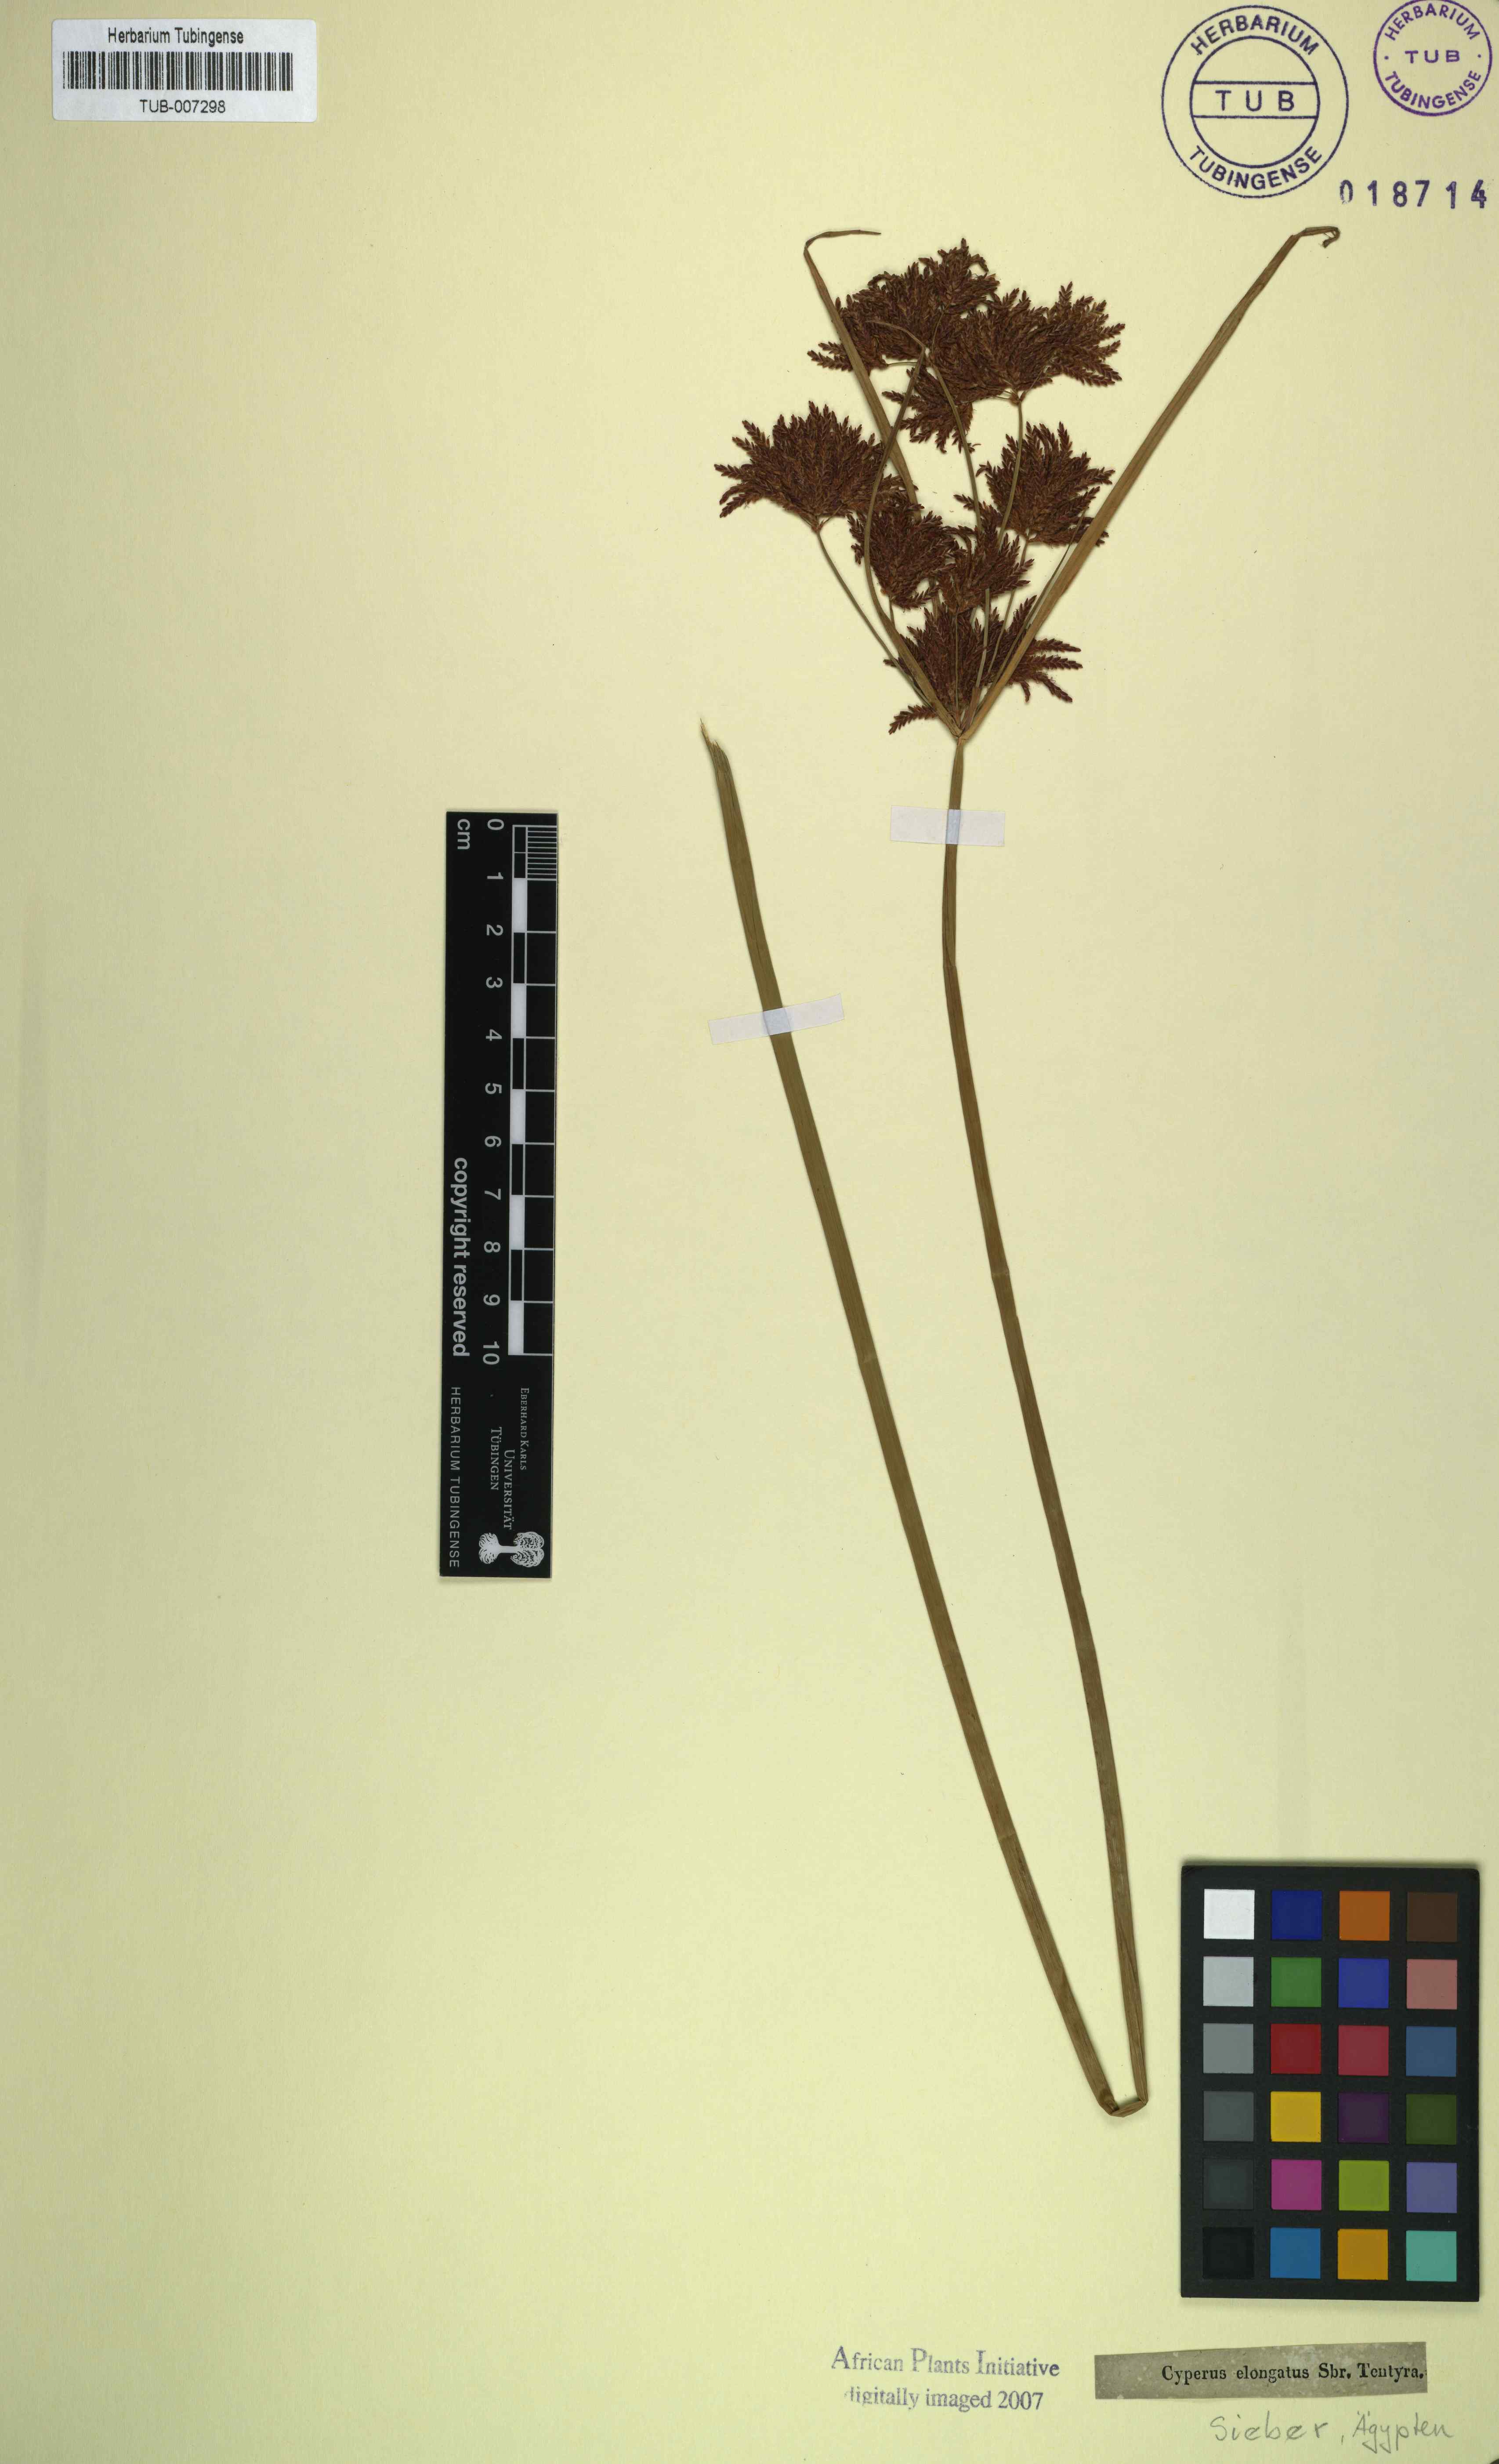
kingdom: Plantae
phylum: Tracheophyta
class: Liliopsida
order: Poales
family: Cyperaceae
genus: Cyperus
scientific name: Cyperus rotundus
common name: Nutgrass
